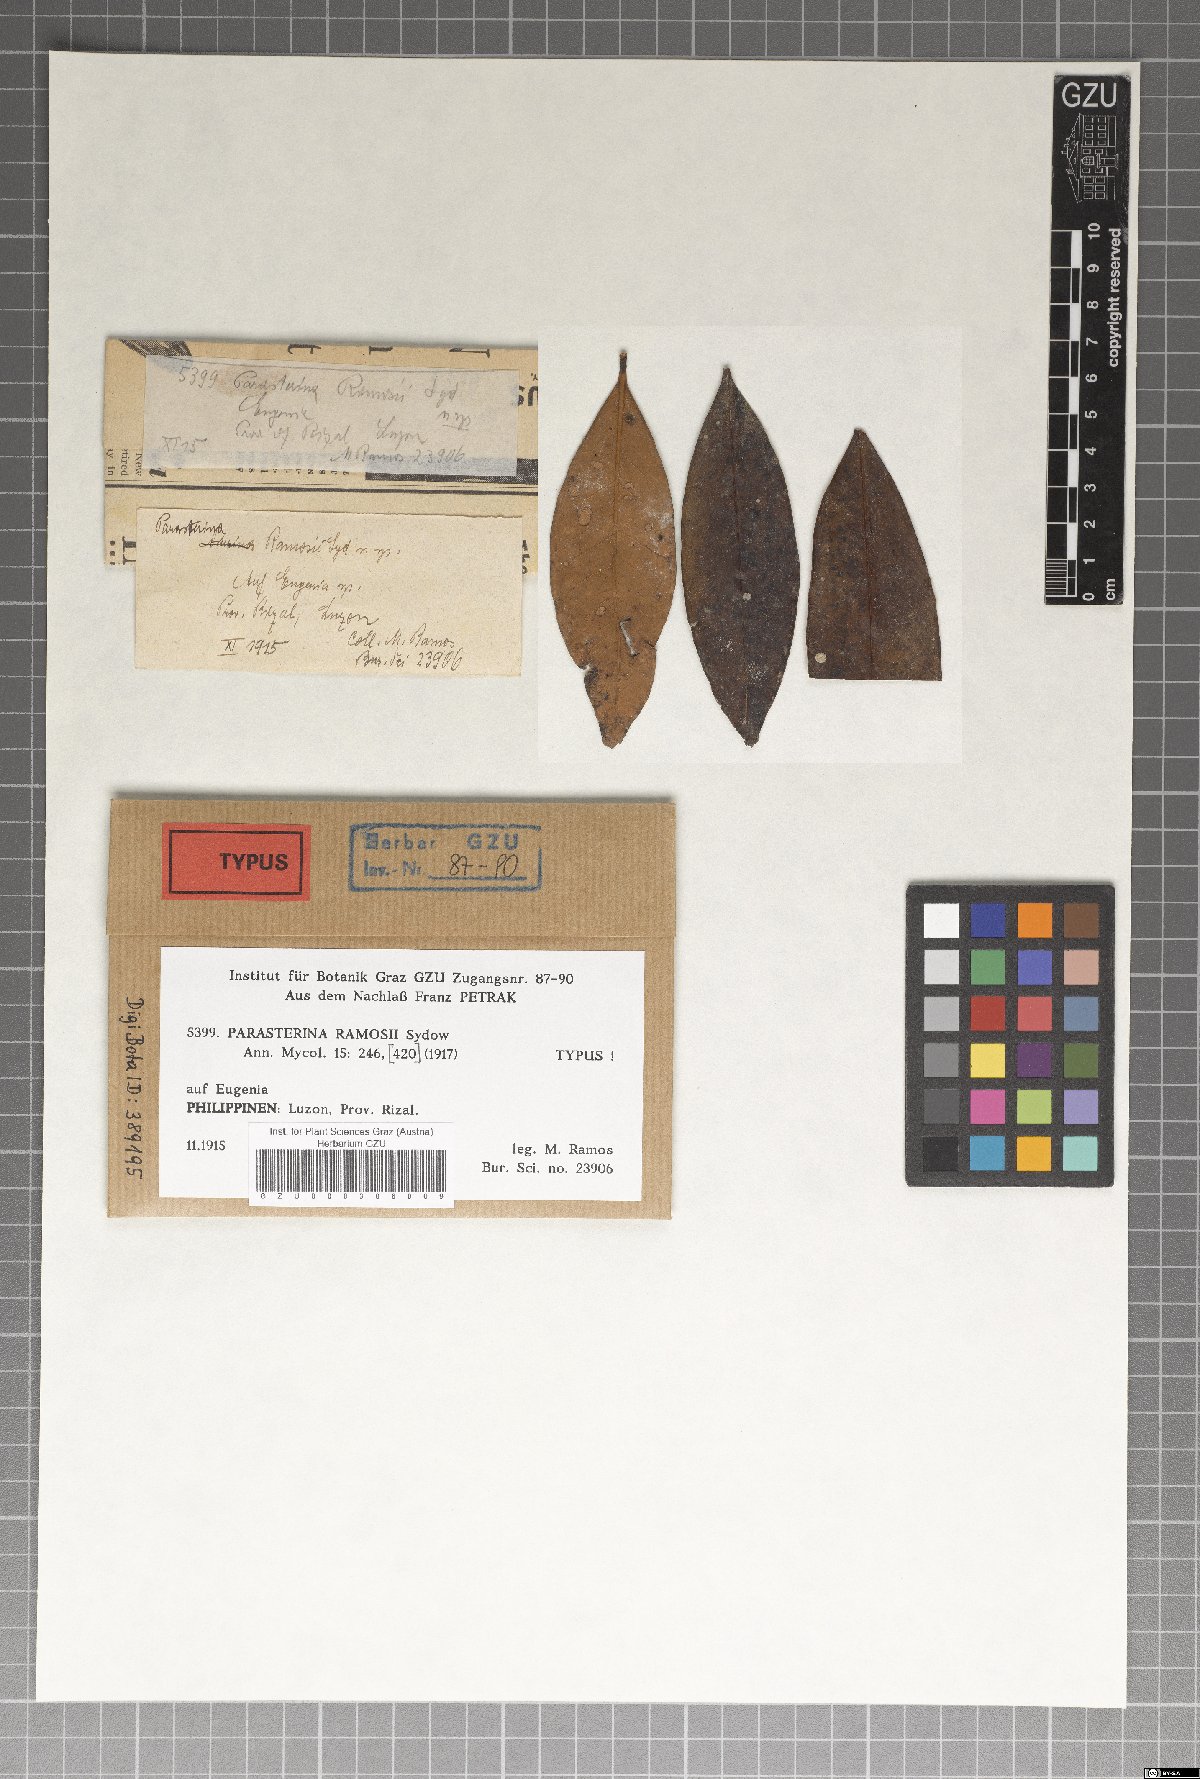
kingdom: Fungi
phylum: Ascomycota
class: Dothideomycetes
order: Asterinales
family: Asterinaceae
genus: Asterina
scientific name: Asterina ramosiana
